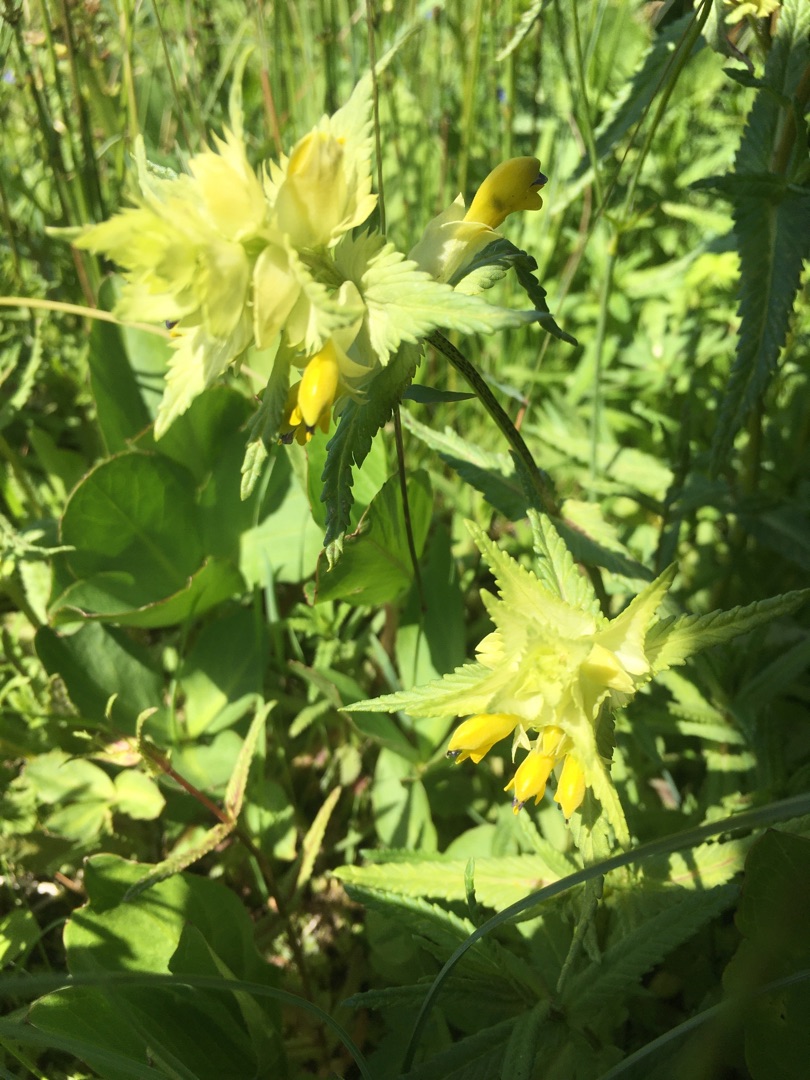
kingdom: Plantae
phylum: Tracheophyta
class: Magnoliopsida
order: Lamiales
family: Orobanchaceae
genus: Rhinanthus
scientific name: Rhinanthus
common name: Stor skjaller
